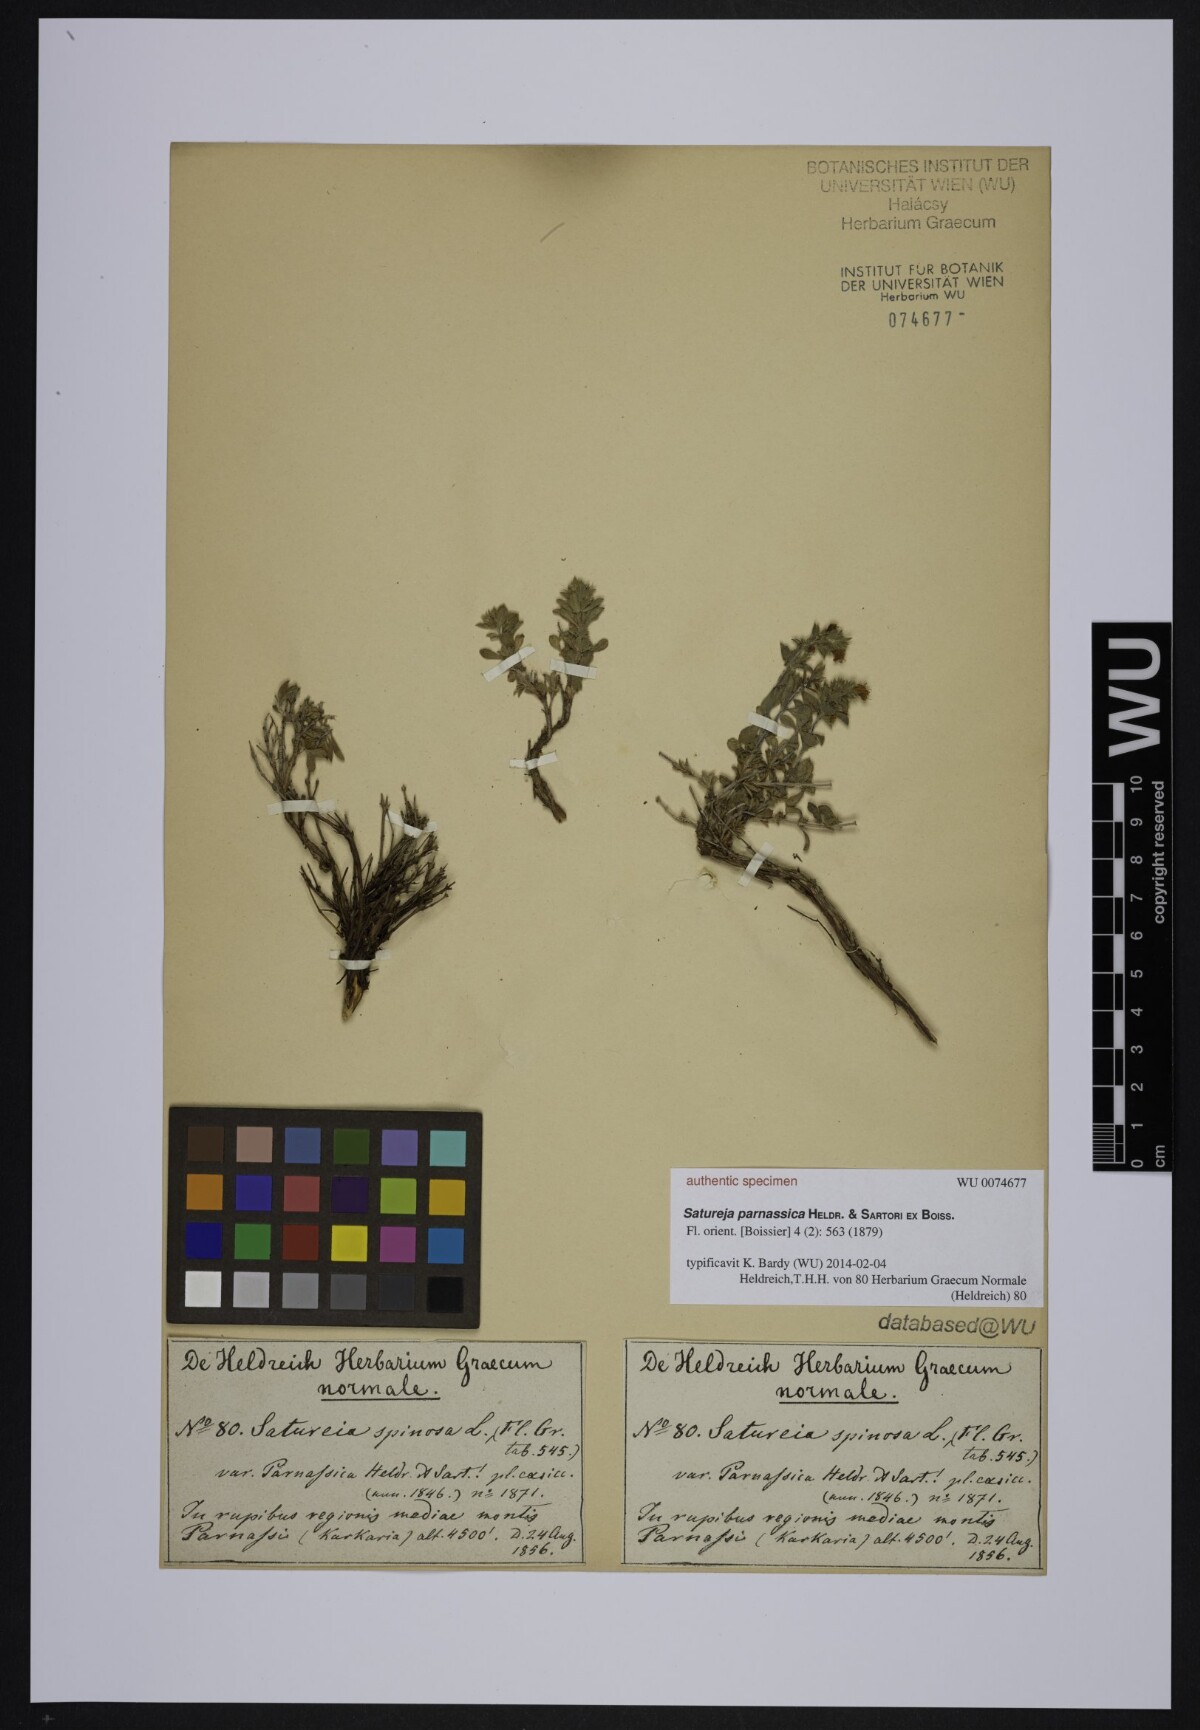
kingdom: Plantae
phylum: Tracheophyta
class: Magnoliopsida
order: Lamiales
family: Lamiaceae
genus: Satureja
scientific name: Satureja spinosa
